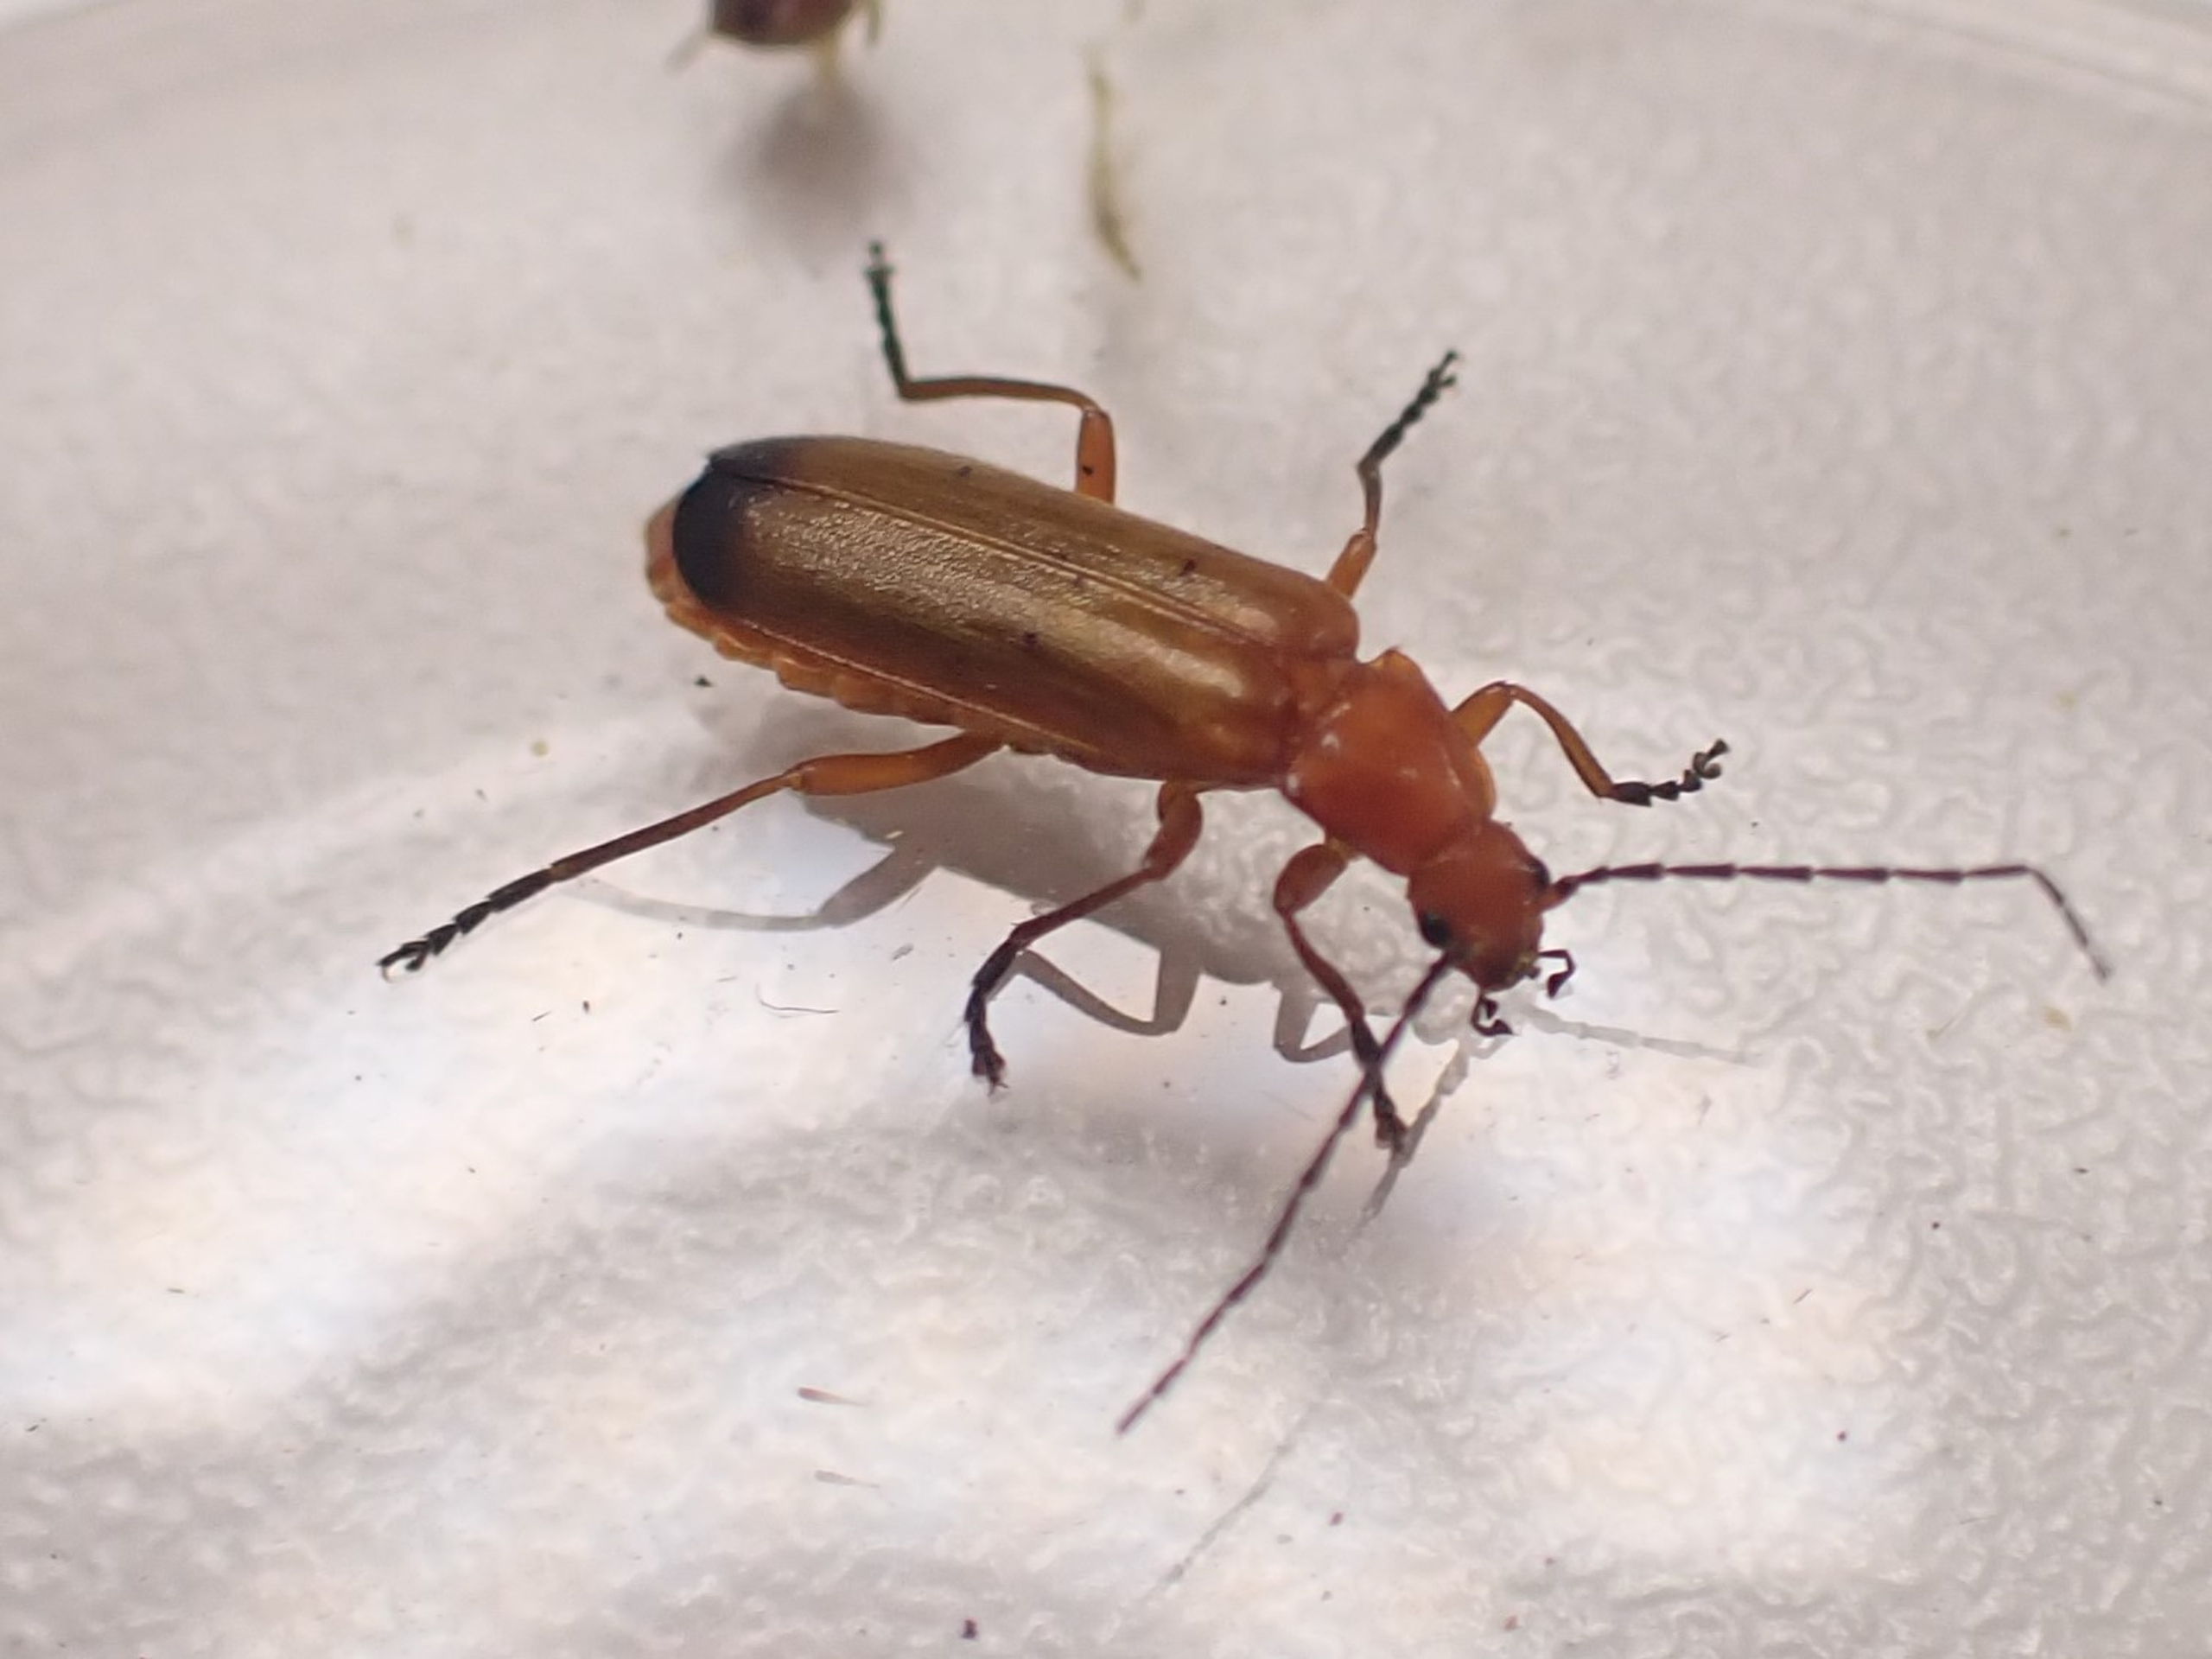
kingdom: Animalia
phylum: Arthropoda
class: Insecta
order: Coleoptera
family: Cantharidae
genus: Rhagonycha
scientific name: Rhagonycha fulva
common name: Præstebille
